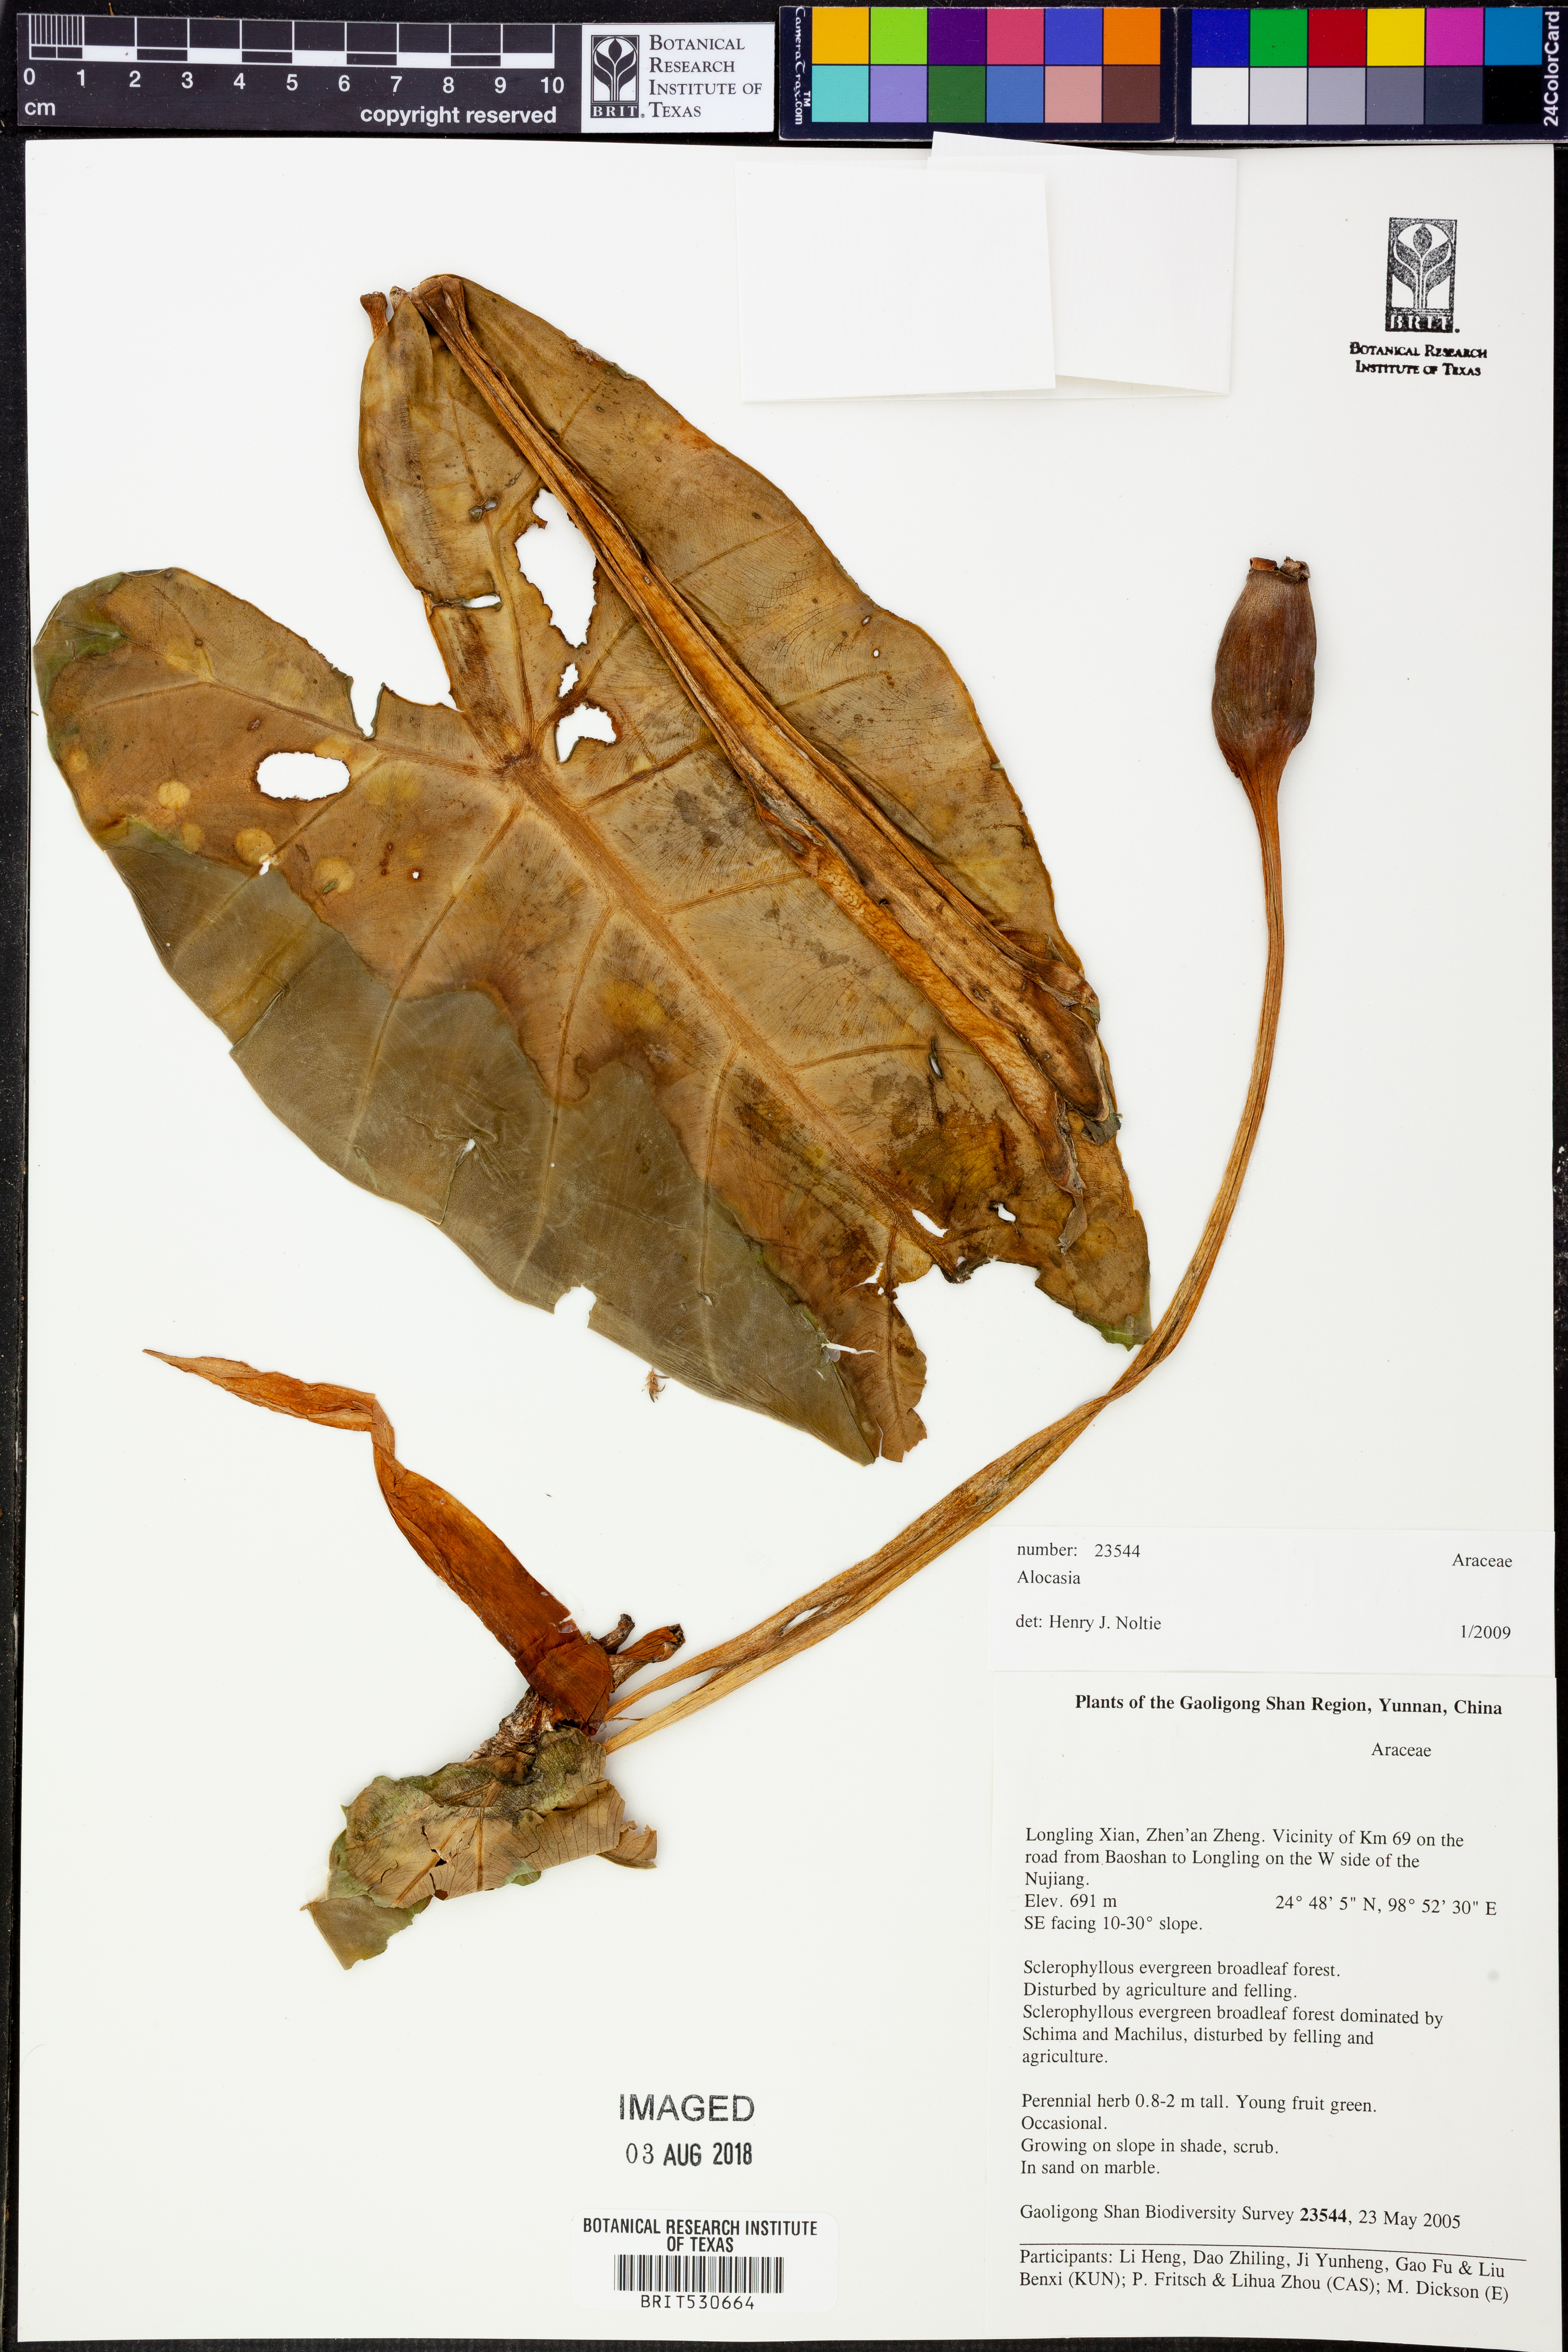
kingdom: Plantae
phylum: Tracheophyta
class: Liliopsida
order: Alismatales
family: Araceae
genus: Alocasia
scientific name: Alocasia
